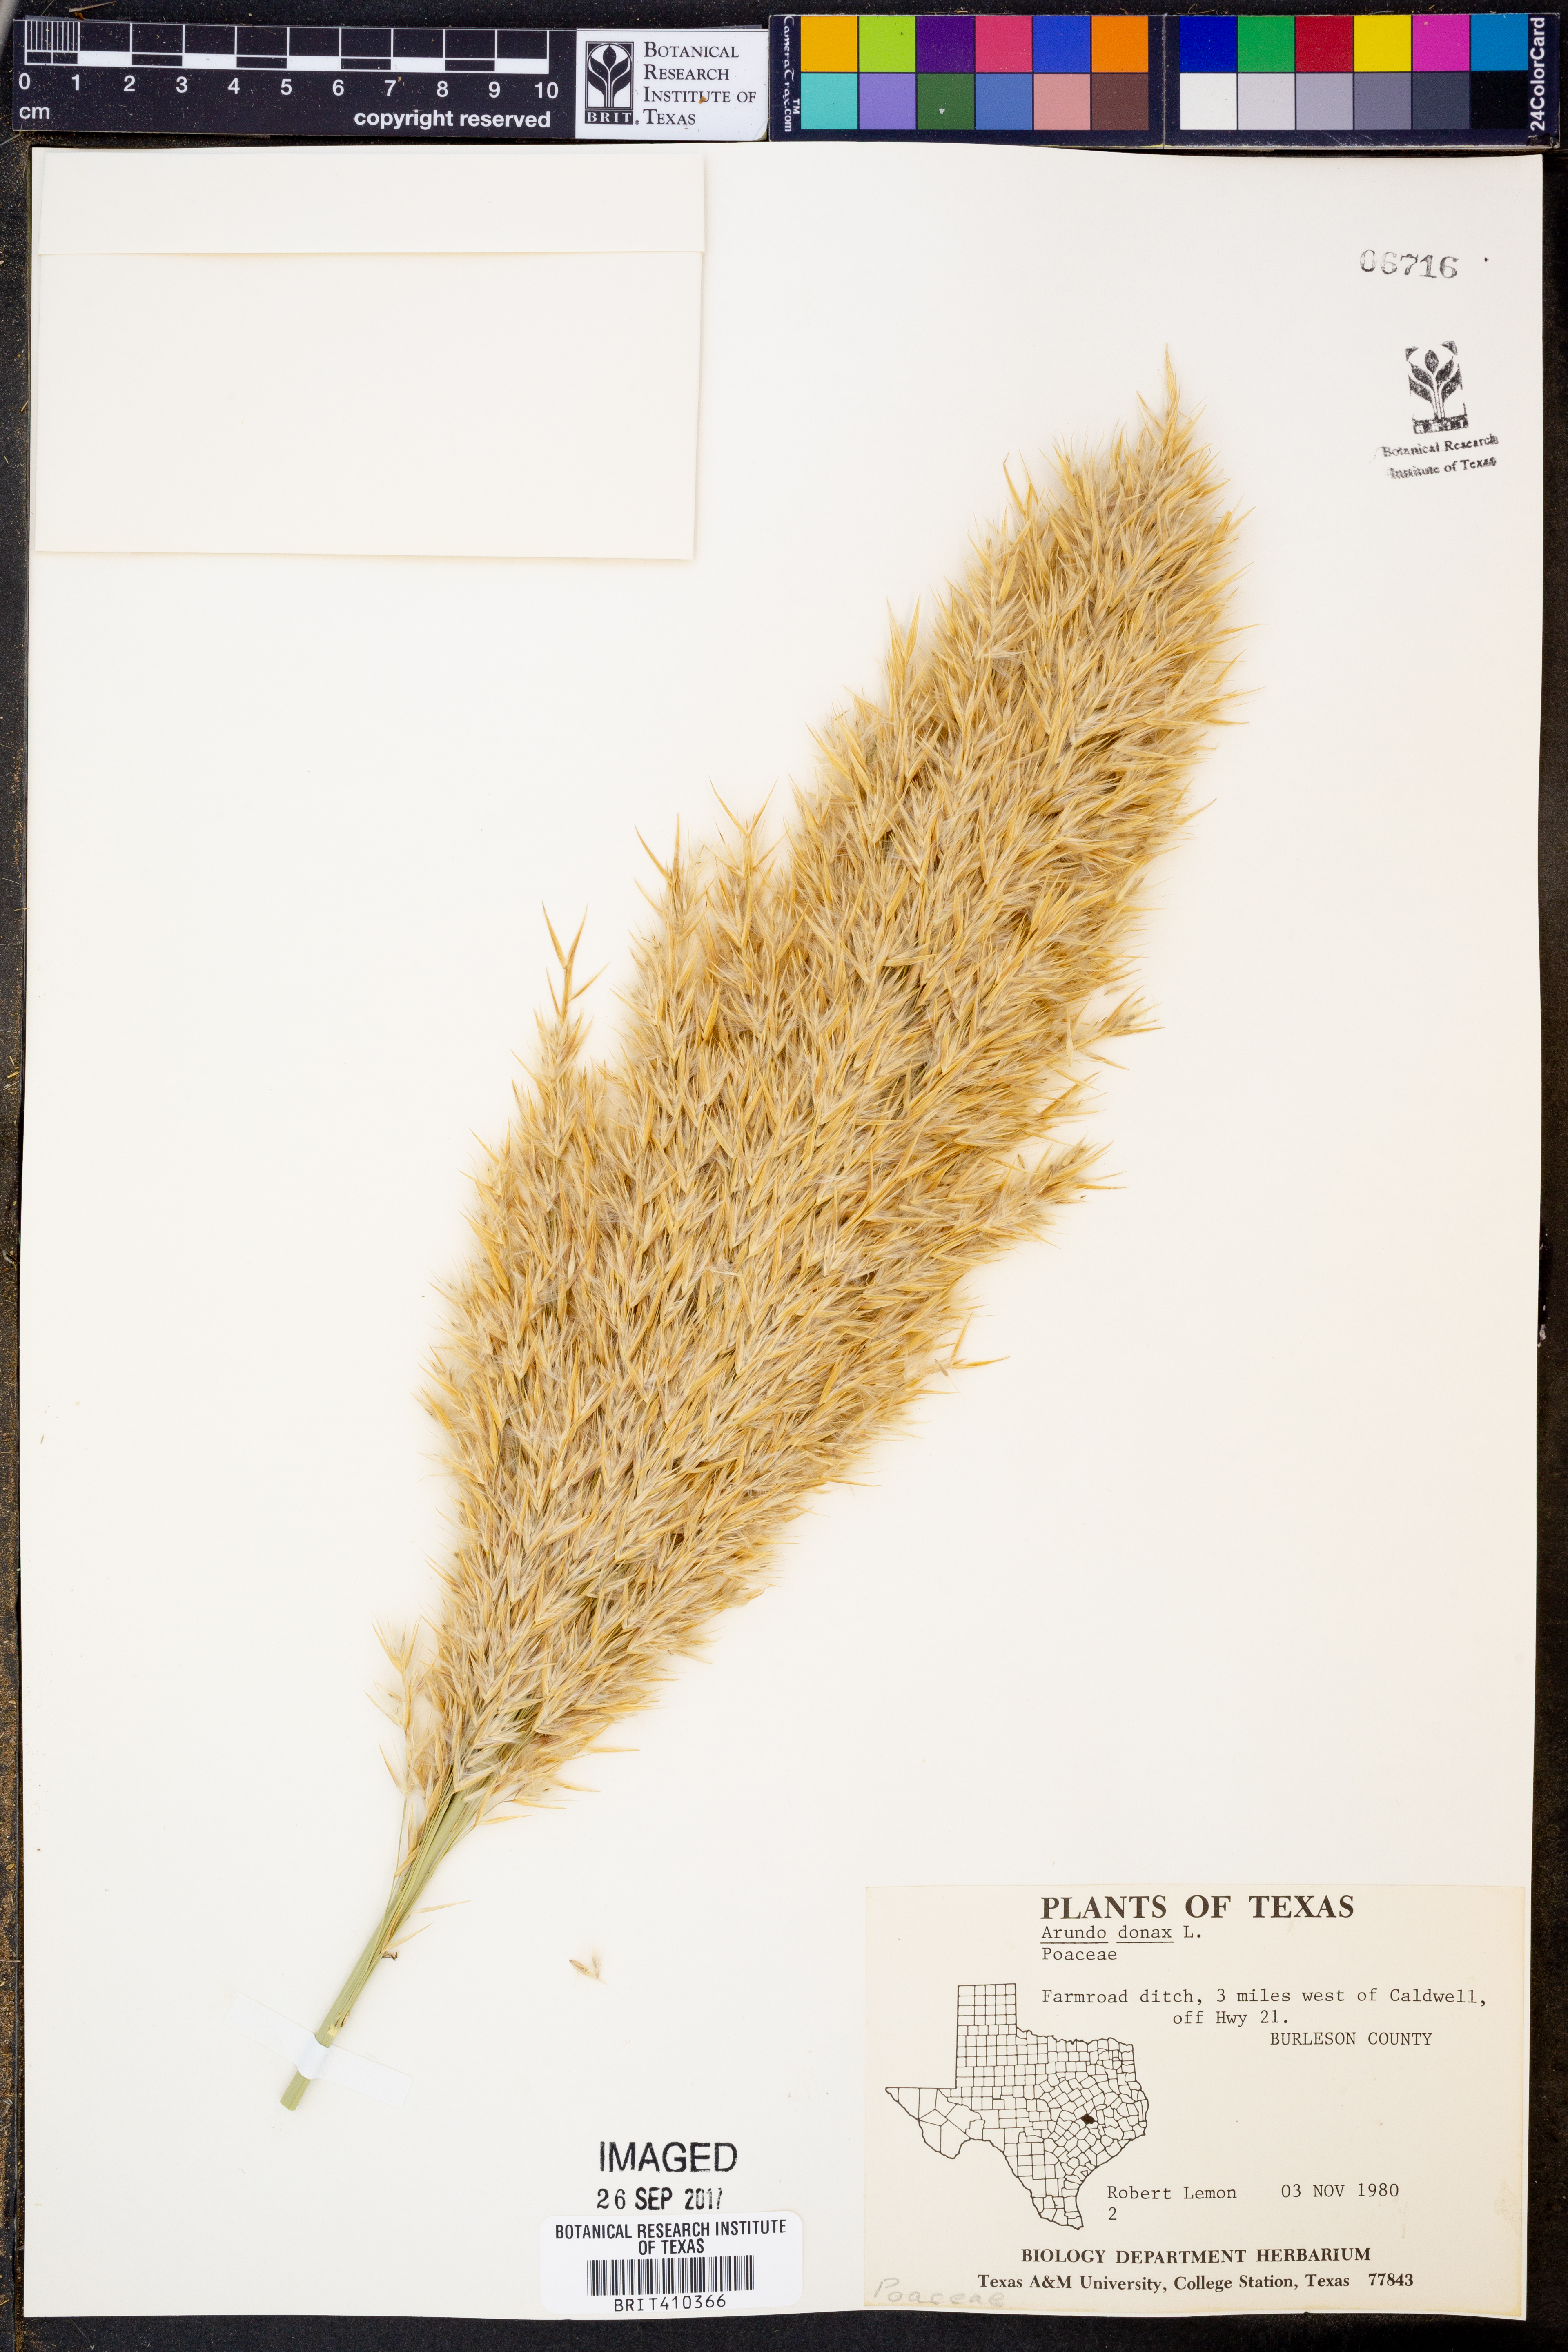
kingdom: Plantae
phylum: Tracheophyta
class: Liliopsida
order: Poales
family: Poaceae
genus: Arundo
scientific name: Arundo donax
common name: Giant reed
